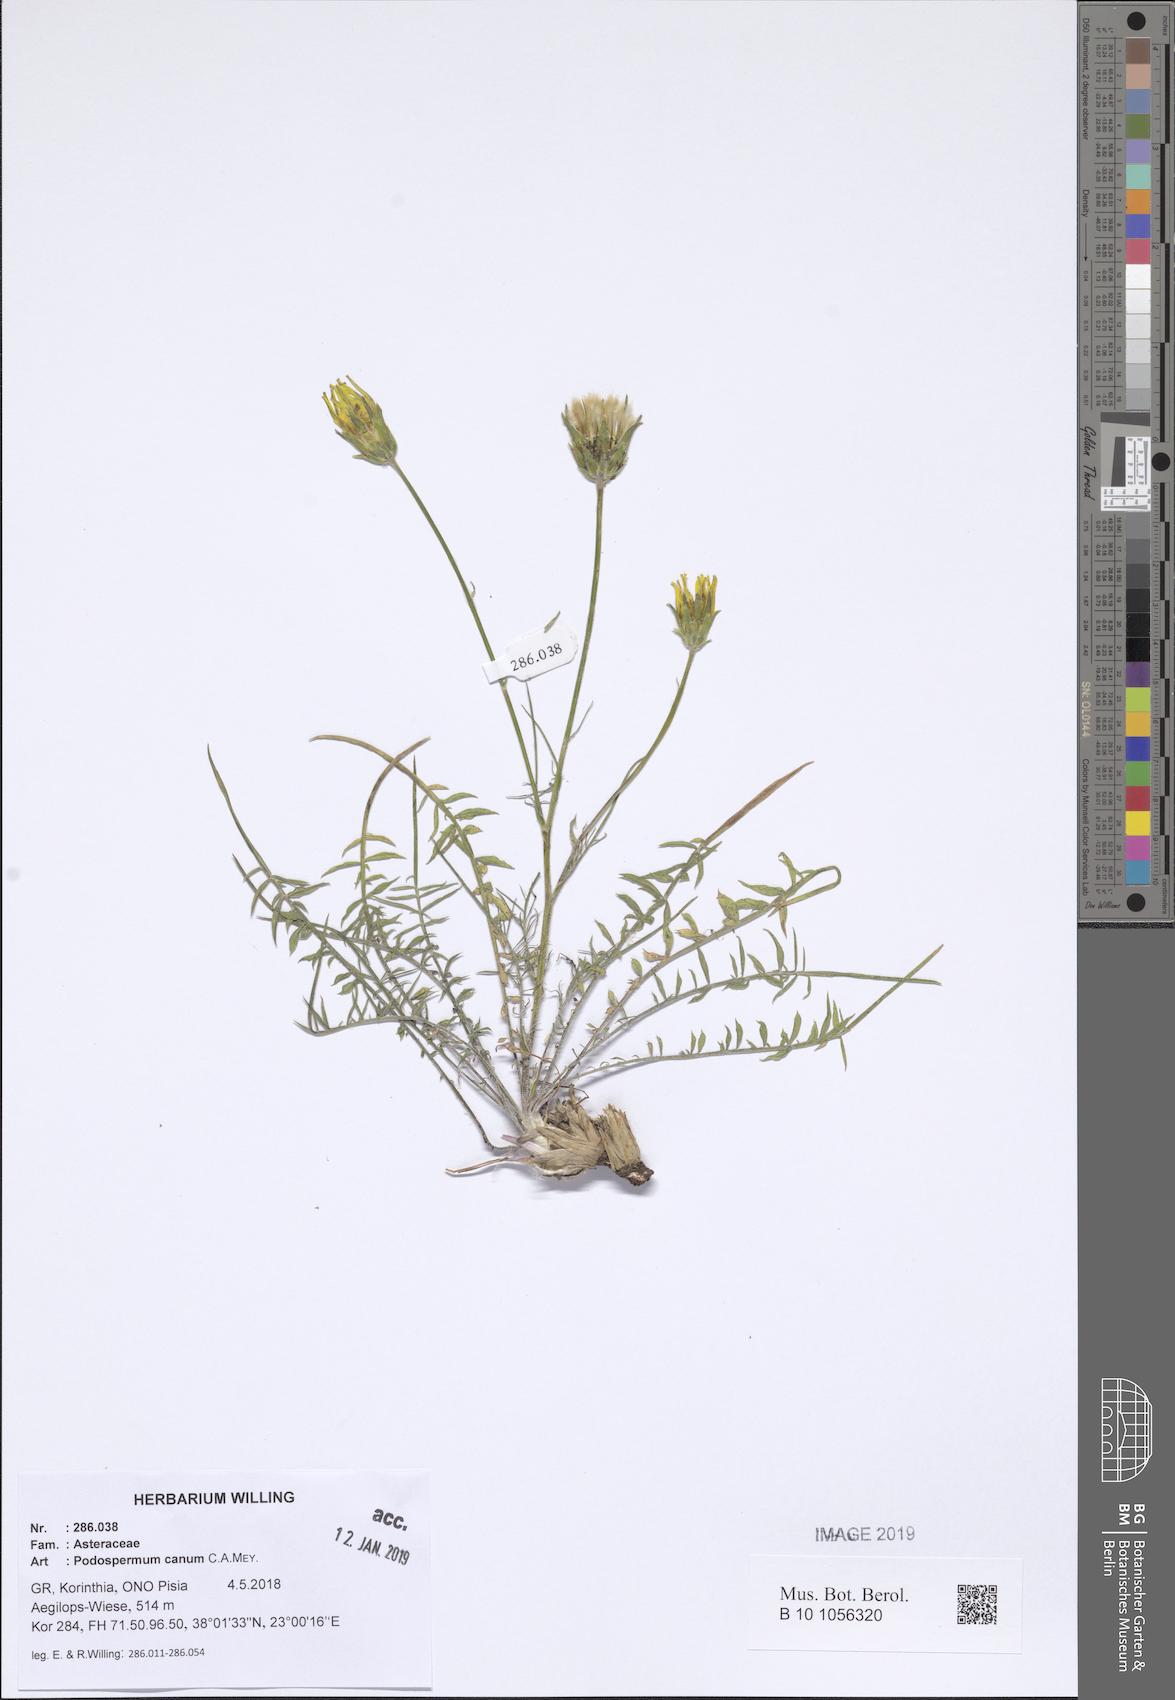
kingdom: Plantae
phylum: Tracheophyta
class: Magnoliopsida
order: Asterales
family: Asteraceae
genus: Scorzonera
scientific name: Scorzonera cana
